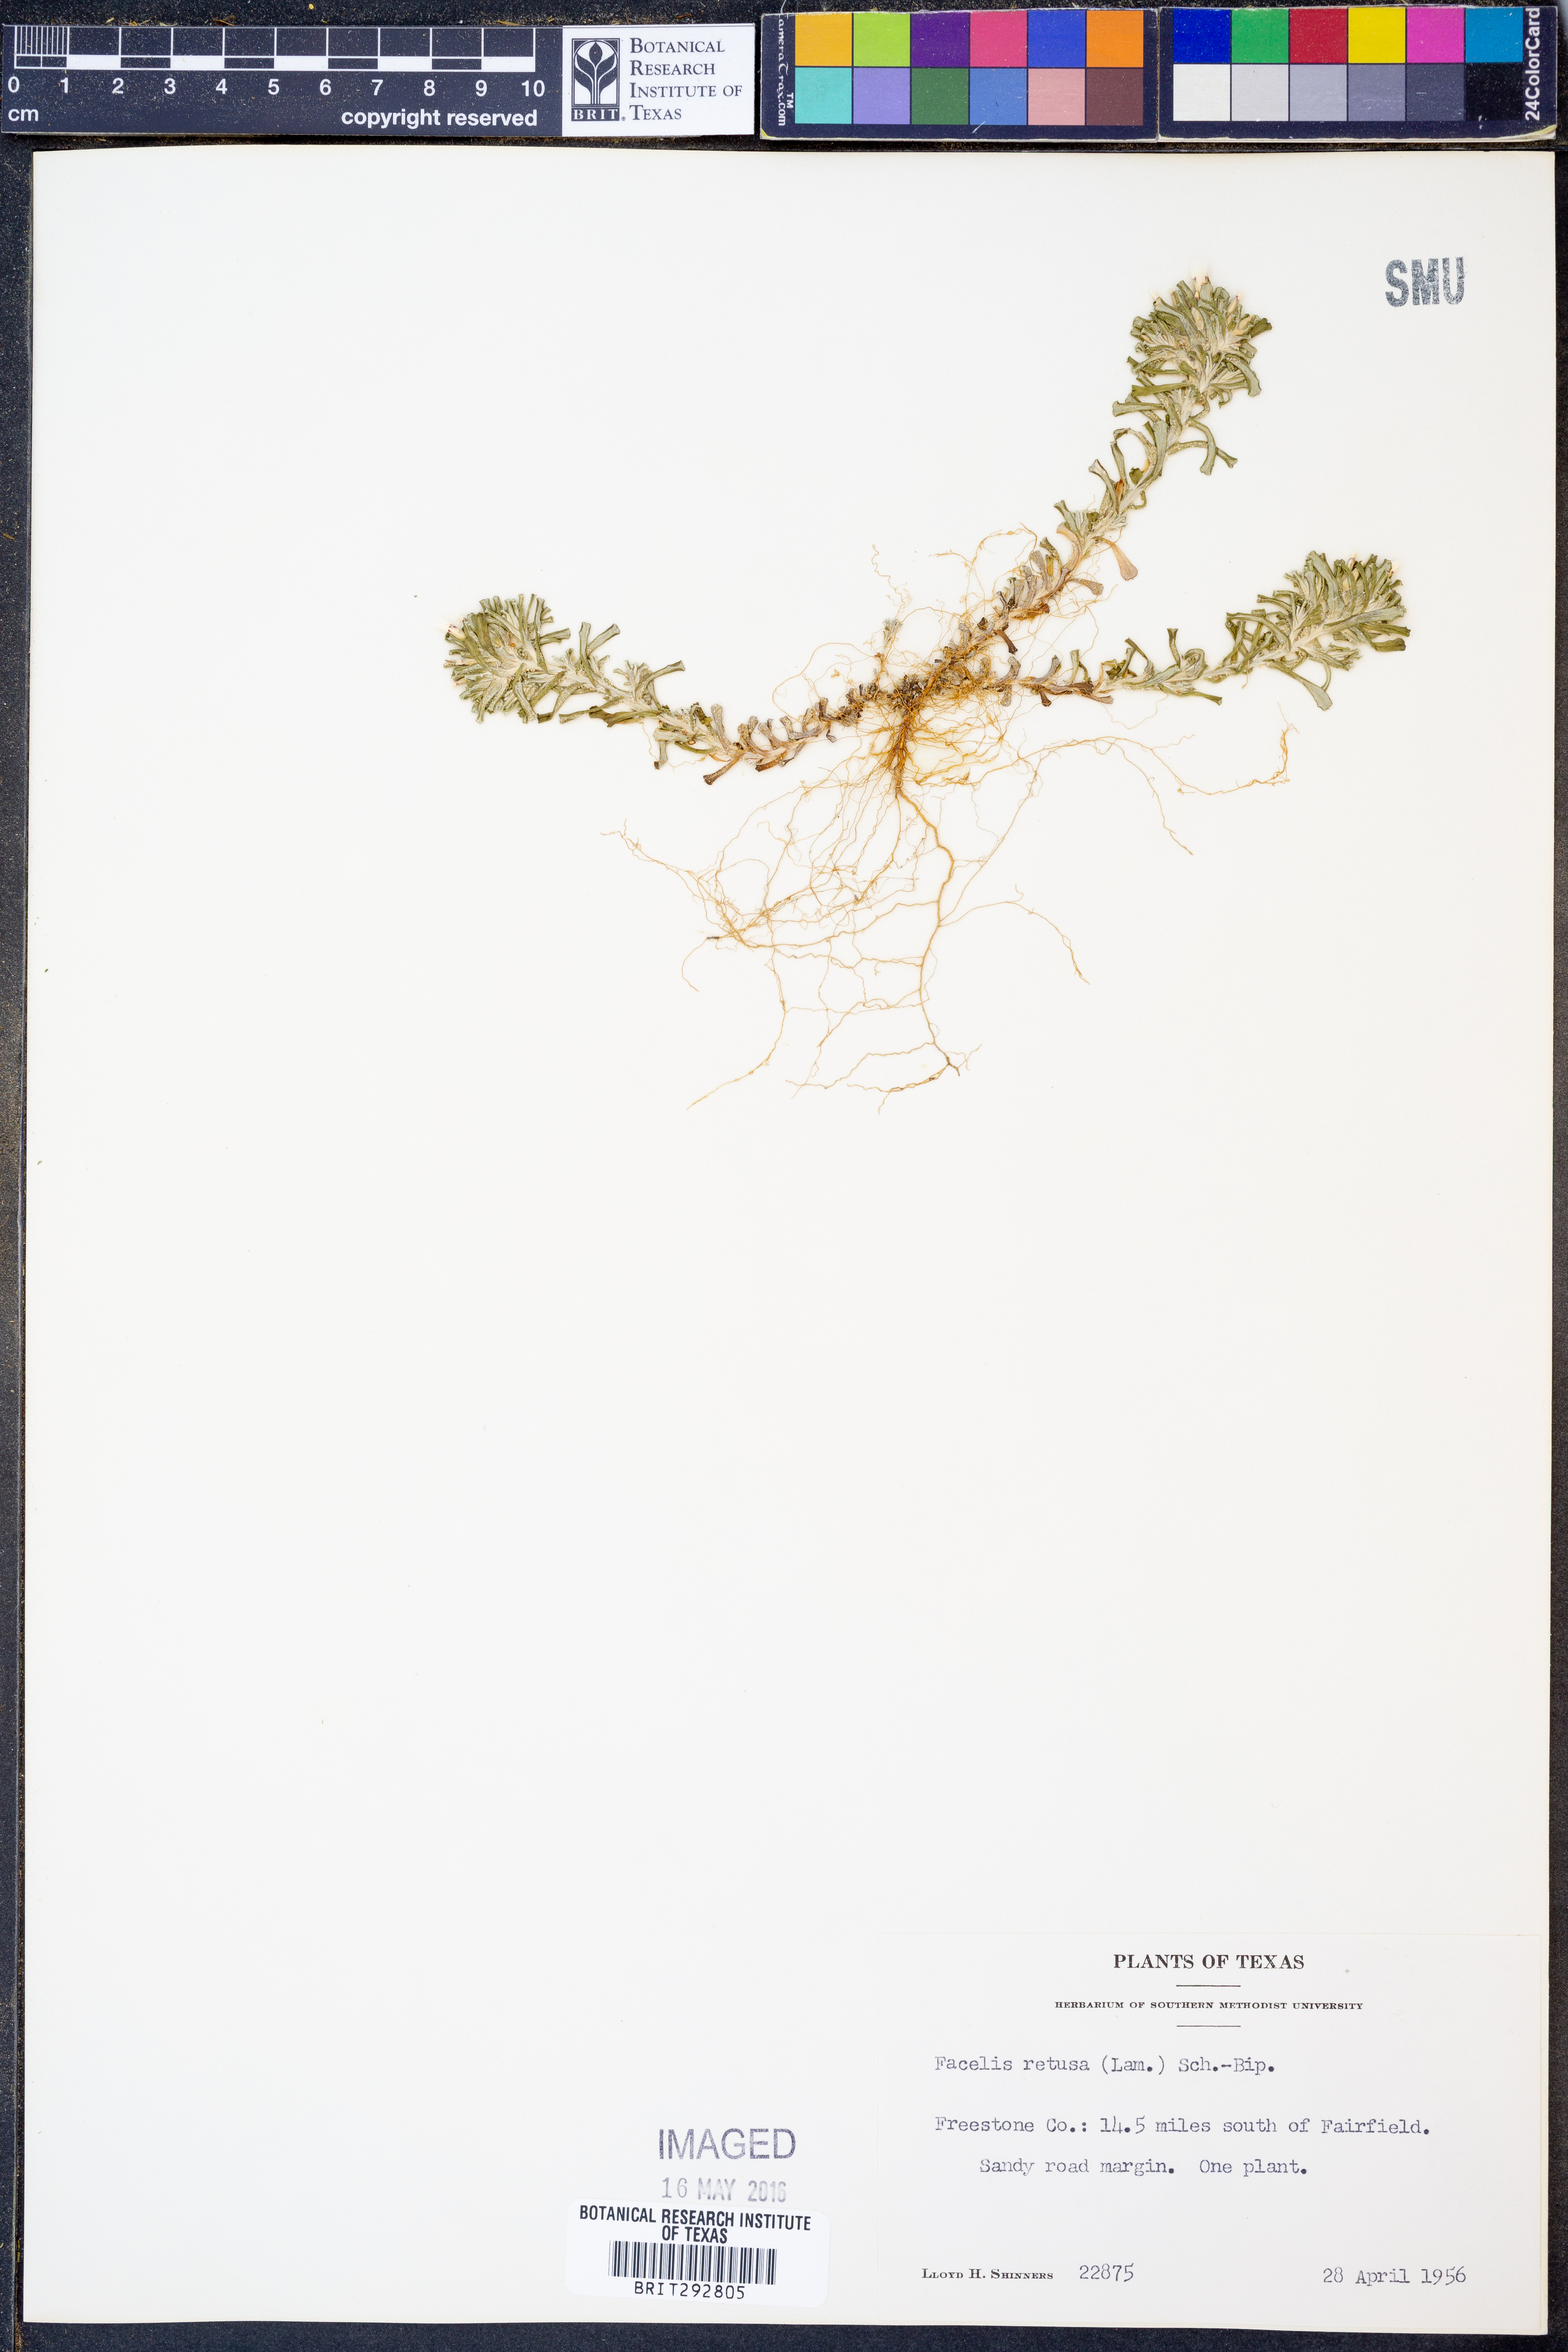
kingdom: Plantae
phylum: Tracheophyta
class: Magnoliopsida
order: Asterales
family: Asteraceae
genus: Facelis
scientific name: Facelis retusa
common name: Annual trampweed
